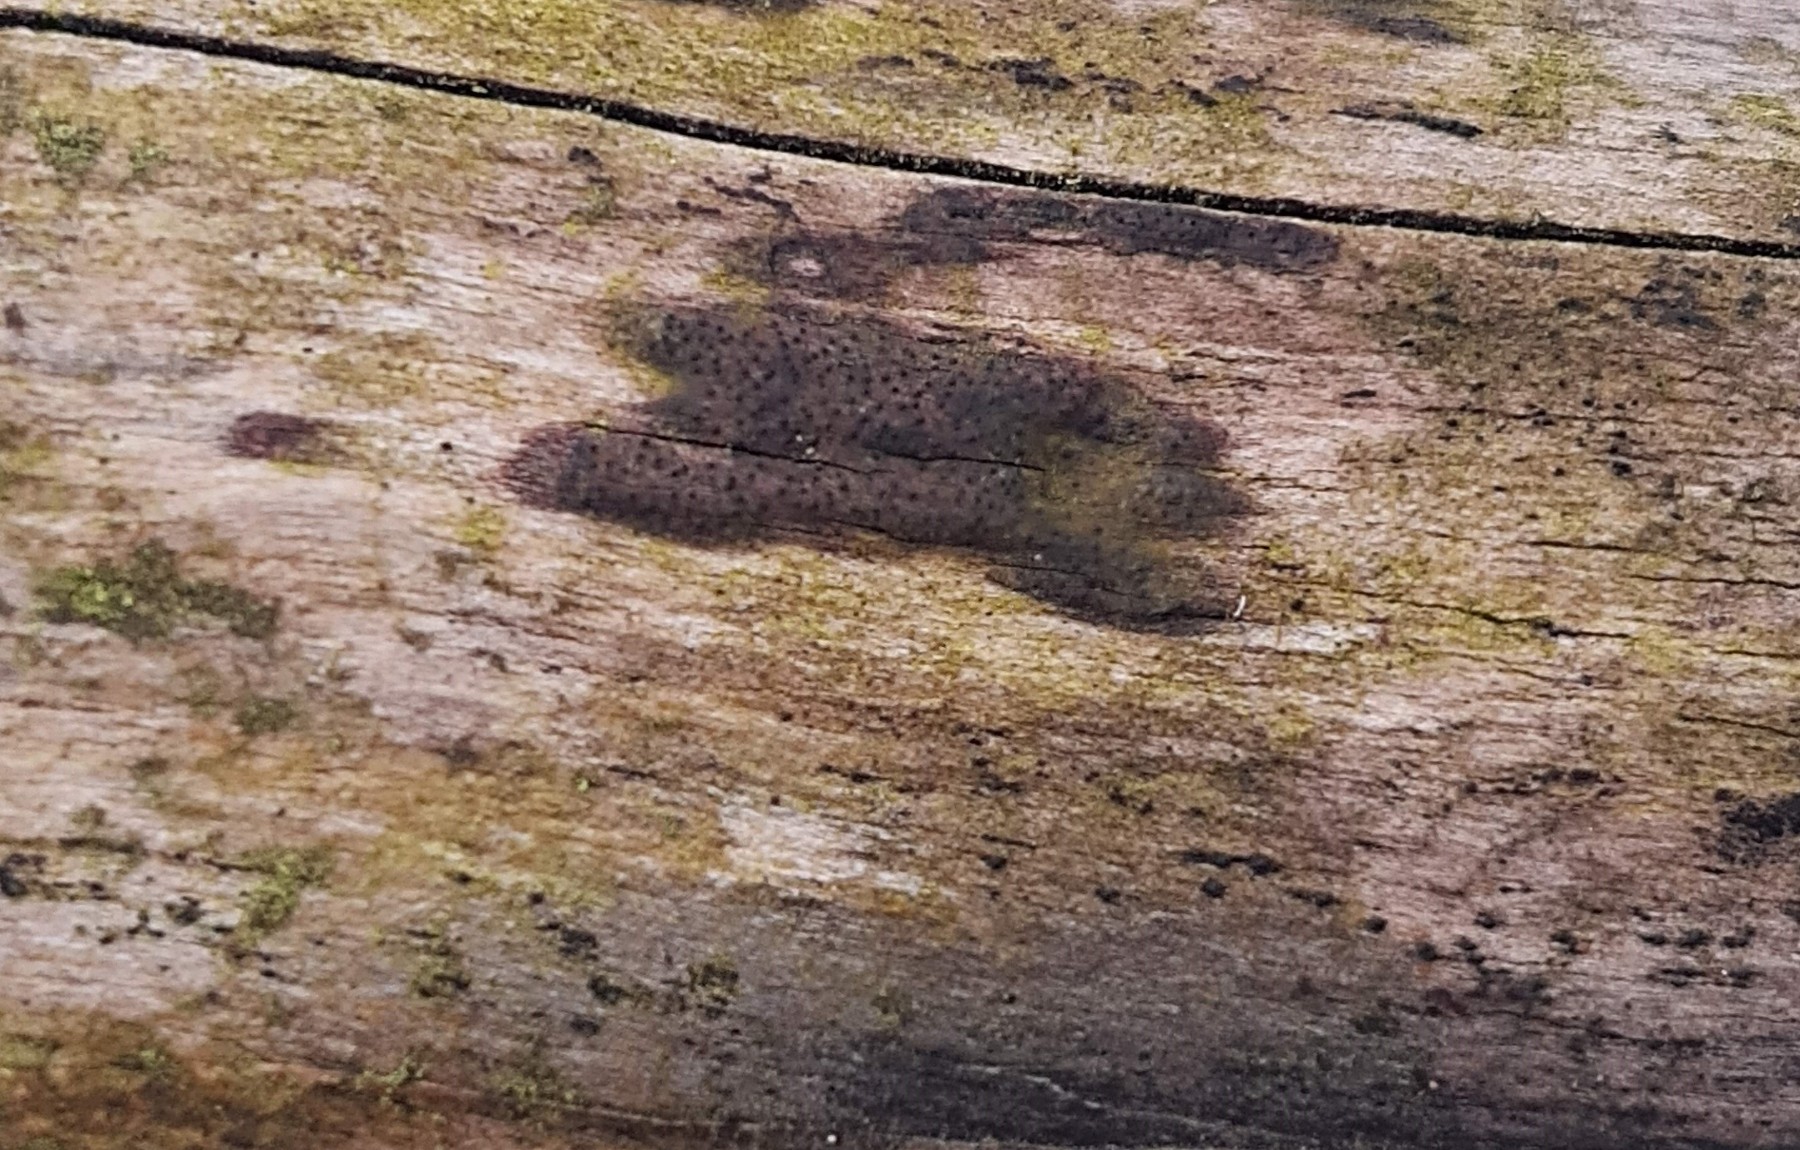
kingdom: Fungi
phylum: Ascomycota
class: Sordariomycetes
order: Xylariales
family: Diatrypaceae
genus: Eutypa
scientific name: Eutypa
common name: kulskorpe
